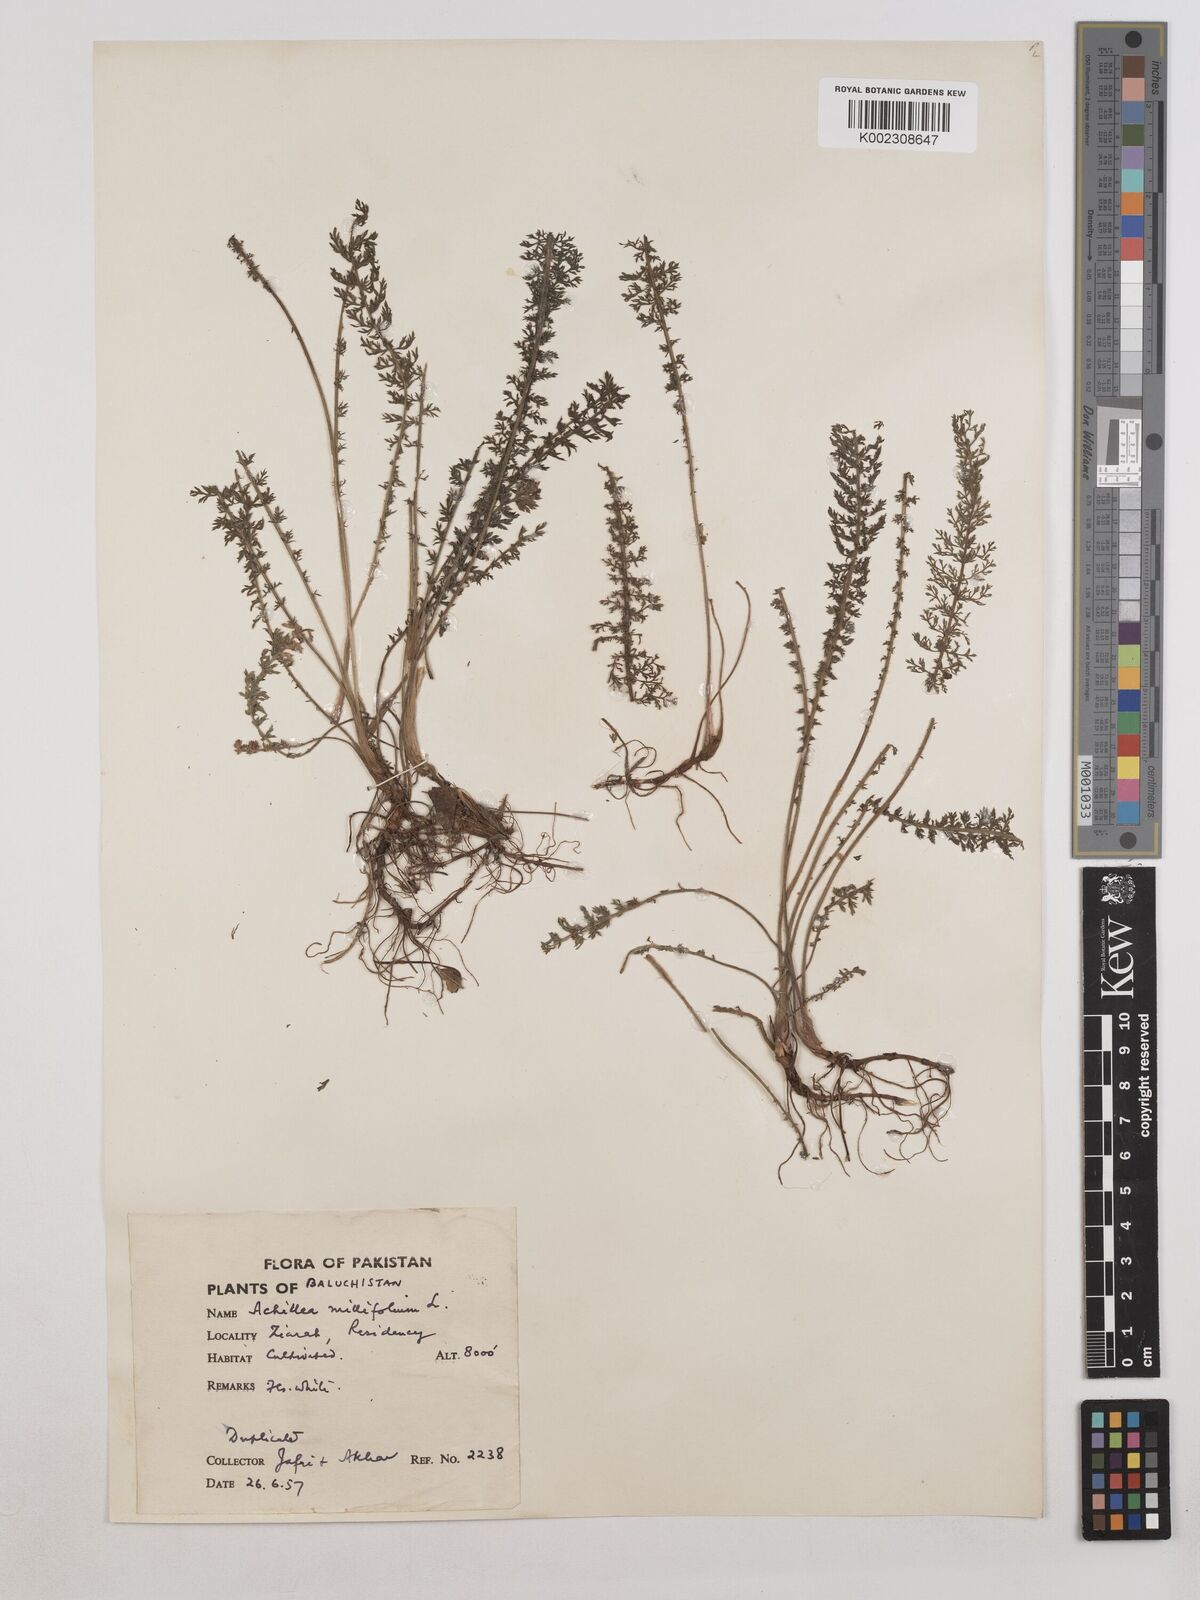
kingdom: Plantae
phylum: Tracheophyta
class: Magnoliopsida
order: Asterales
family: Asteraceae
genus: Achillea
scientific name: Achillea millefolium
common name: Yarrow
